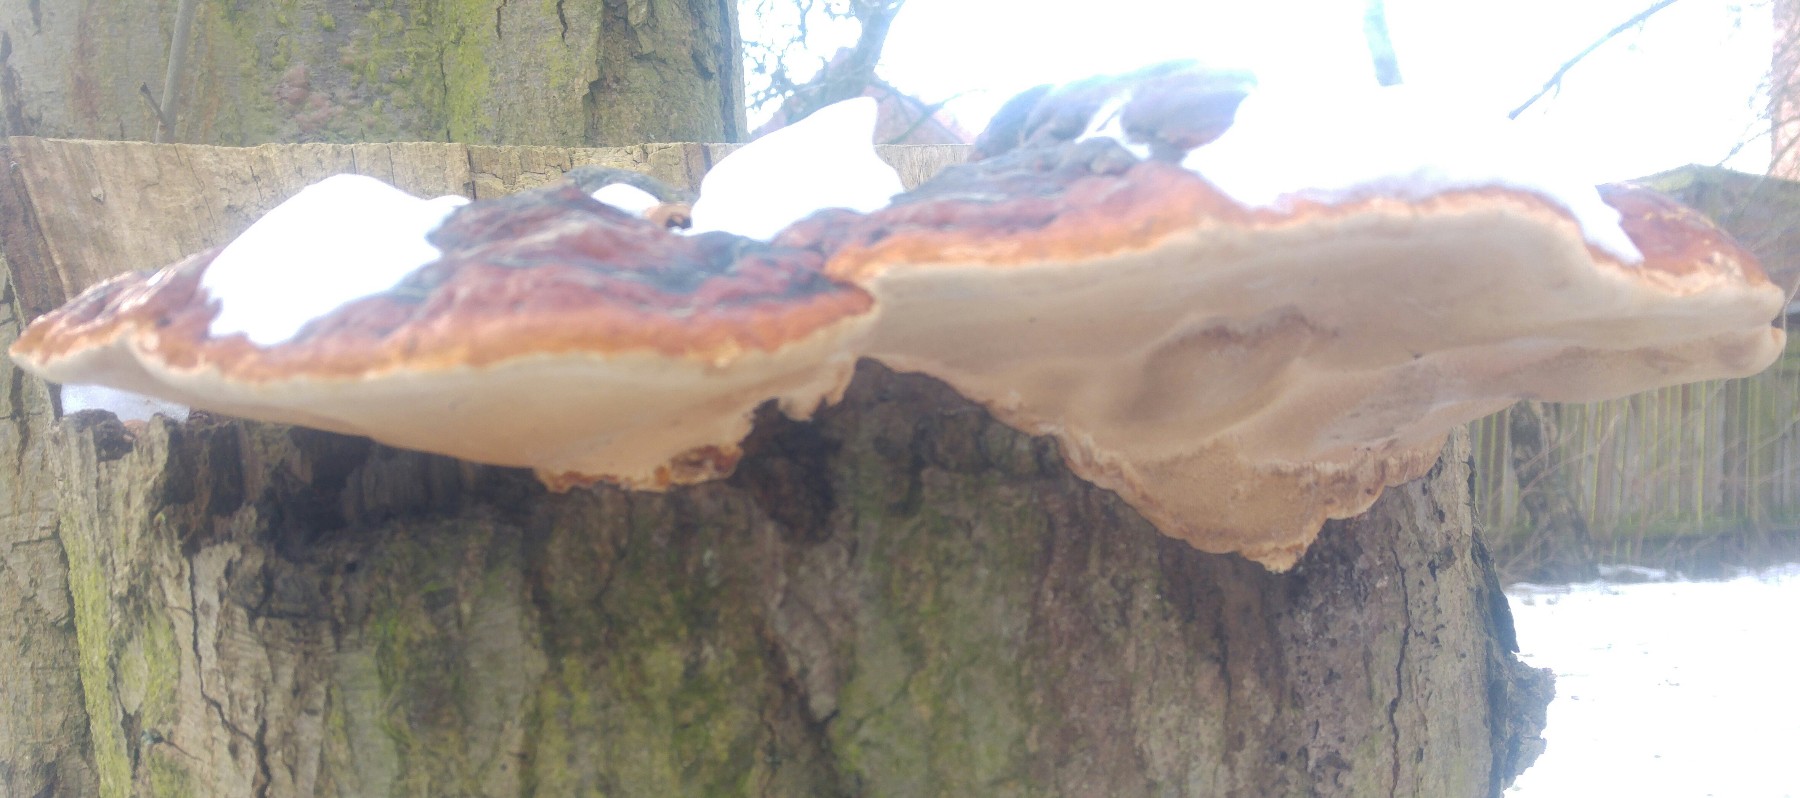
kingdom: Fungi
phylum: Basidiomycota
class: Agaricomycetes
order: Polyporales
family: Fomitopsidaceae
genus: Fomitopsis
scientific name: Fomitopsis pinicola
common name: randbæltet hovporesvamp
